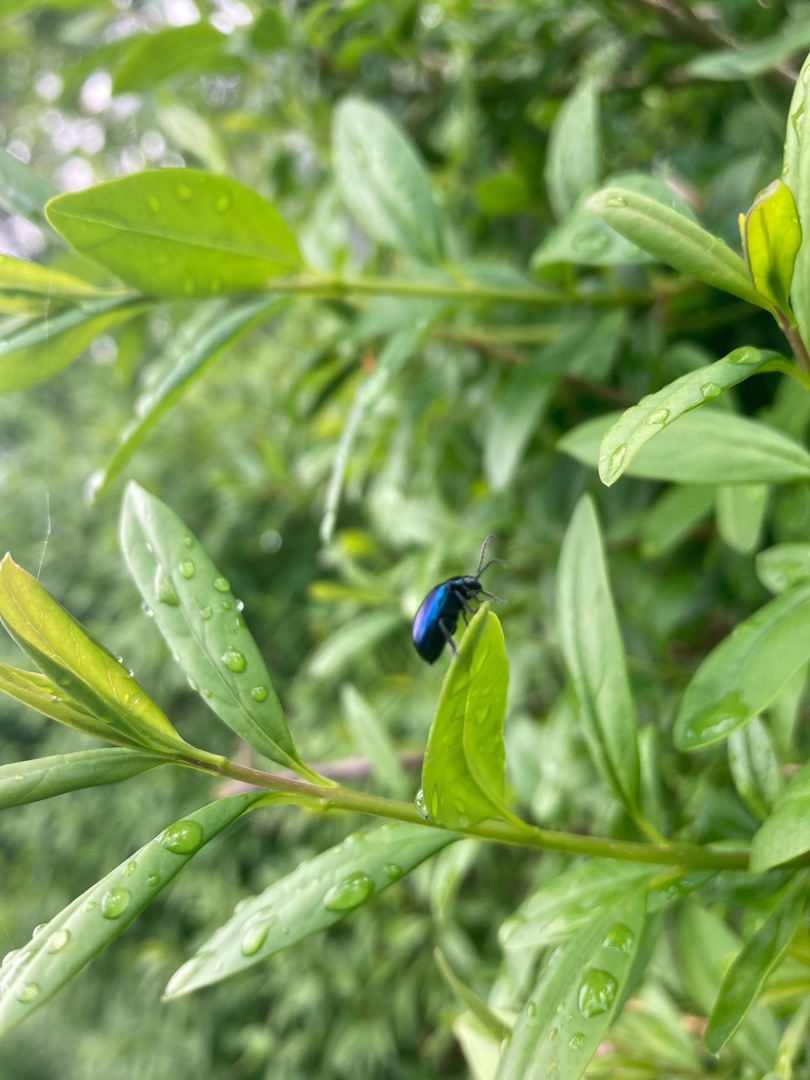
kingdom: Animalia
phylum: Arthropoda
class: Insecta
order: Coleoptera
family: Chrysomelidae
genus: Agelastica
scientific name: Agelastica alni
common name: Ellebladbille
